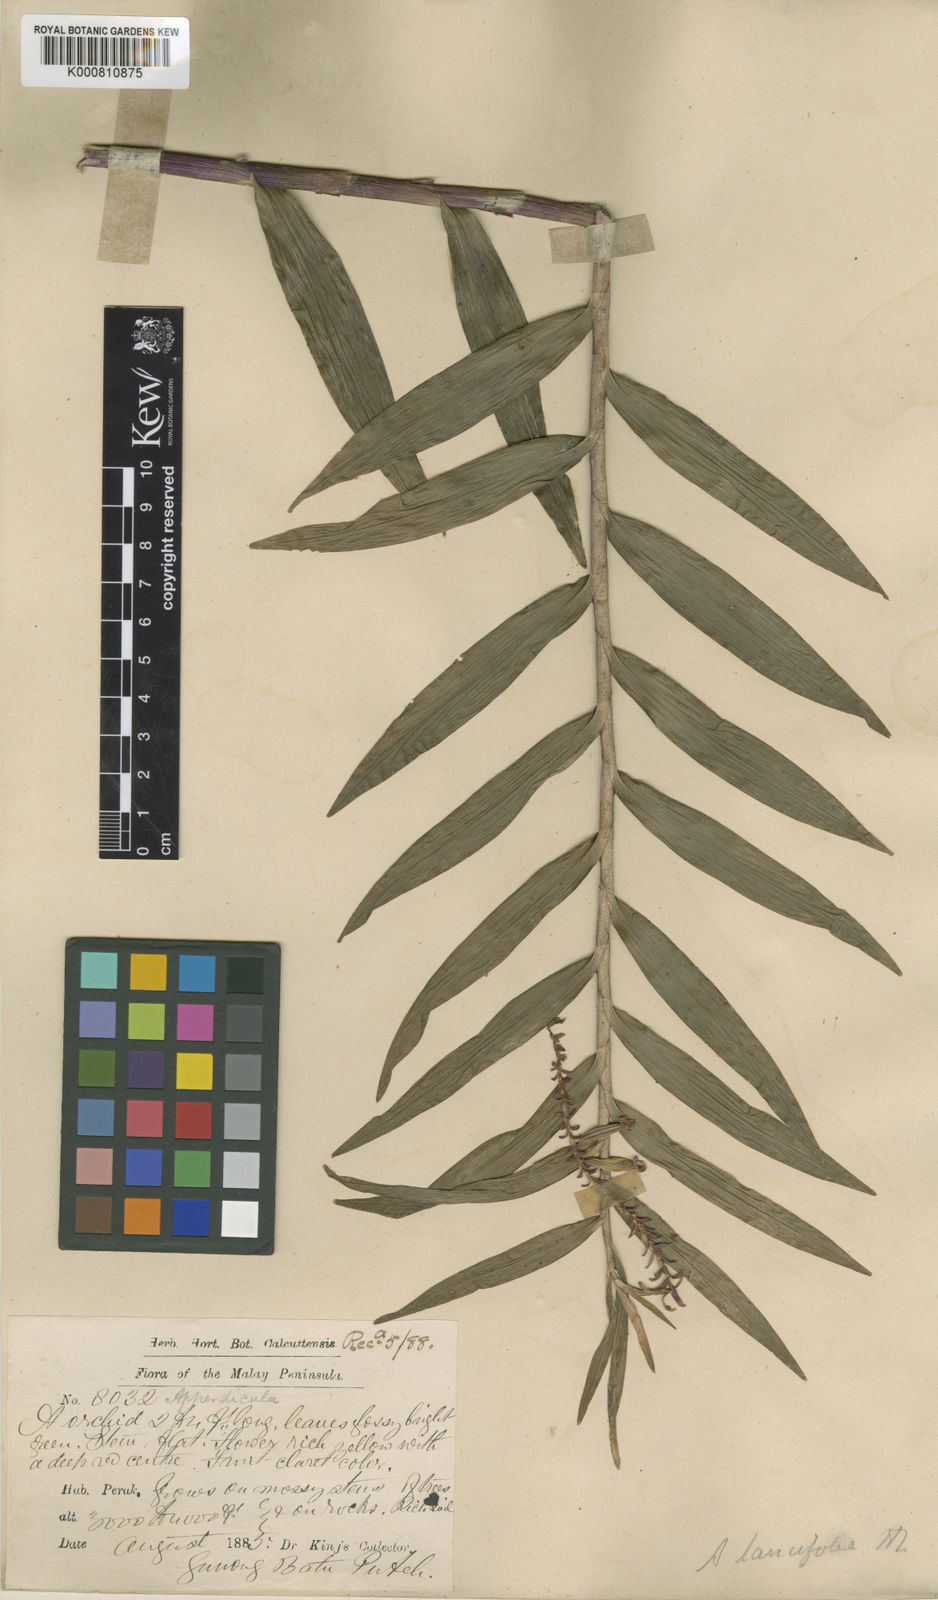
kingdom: Plantae
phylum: Tracheophyta
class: Liliopsida
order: Asparagales
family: Orchidaceae
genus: Appendicula
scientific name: Appendicula pendula
